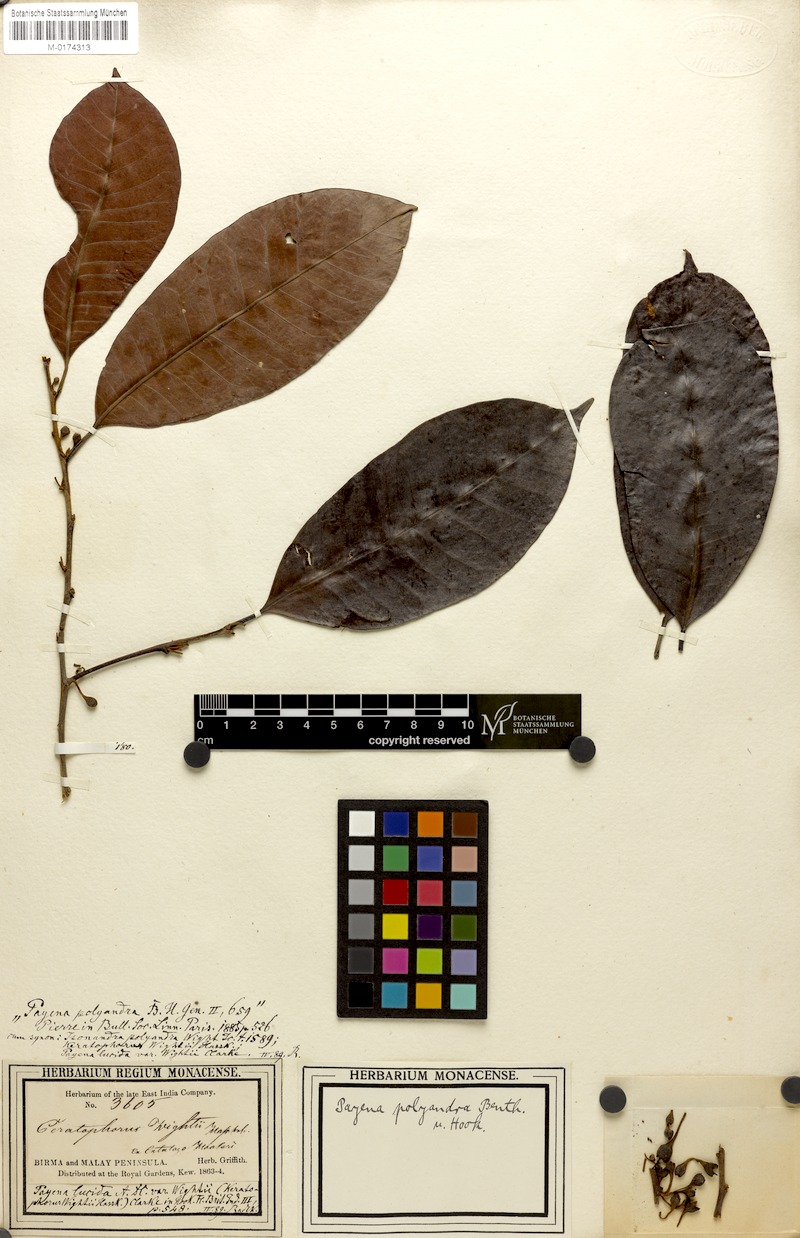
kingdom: Plantae
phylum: Tracheophyta
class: Magnoliopsida
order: Ericales
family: Sapotaceae
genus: Payena
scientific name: Payena lucida
